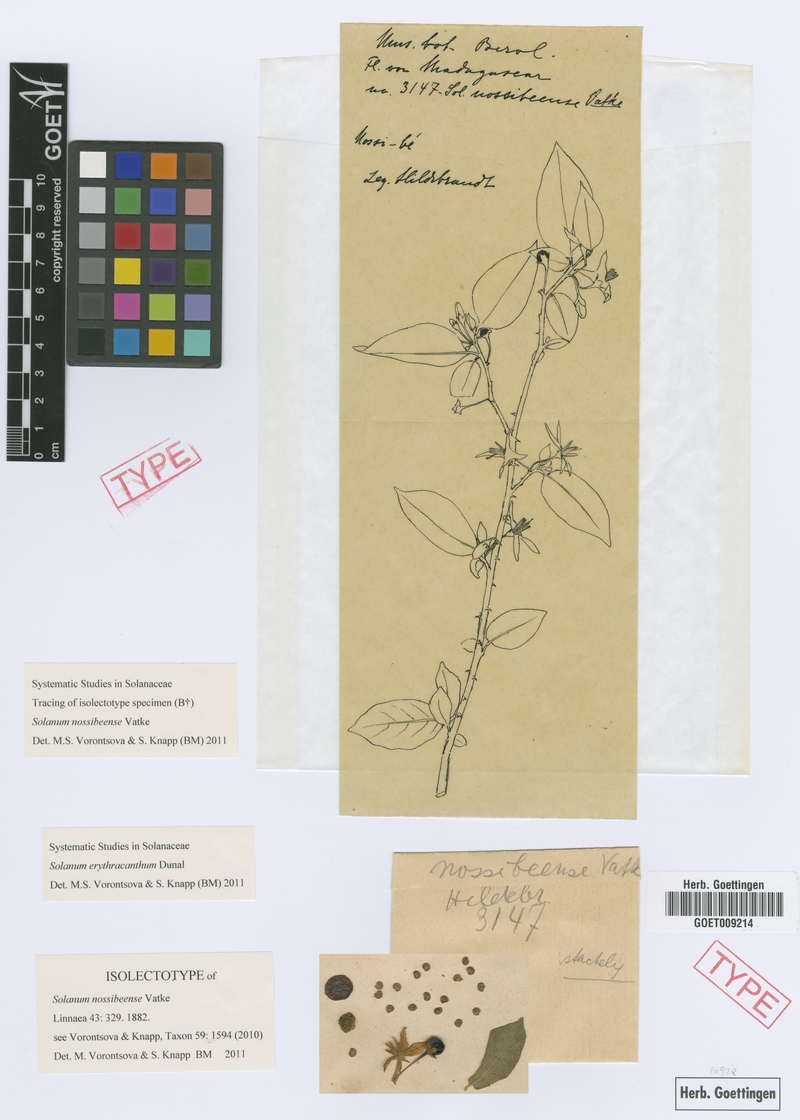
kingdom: Plantae
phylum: Tracheophyta
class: Magnoliopsida
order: Solanales
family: Solanaceae
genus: Solanum
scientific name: Solanum erythracanthum
